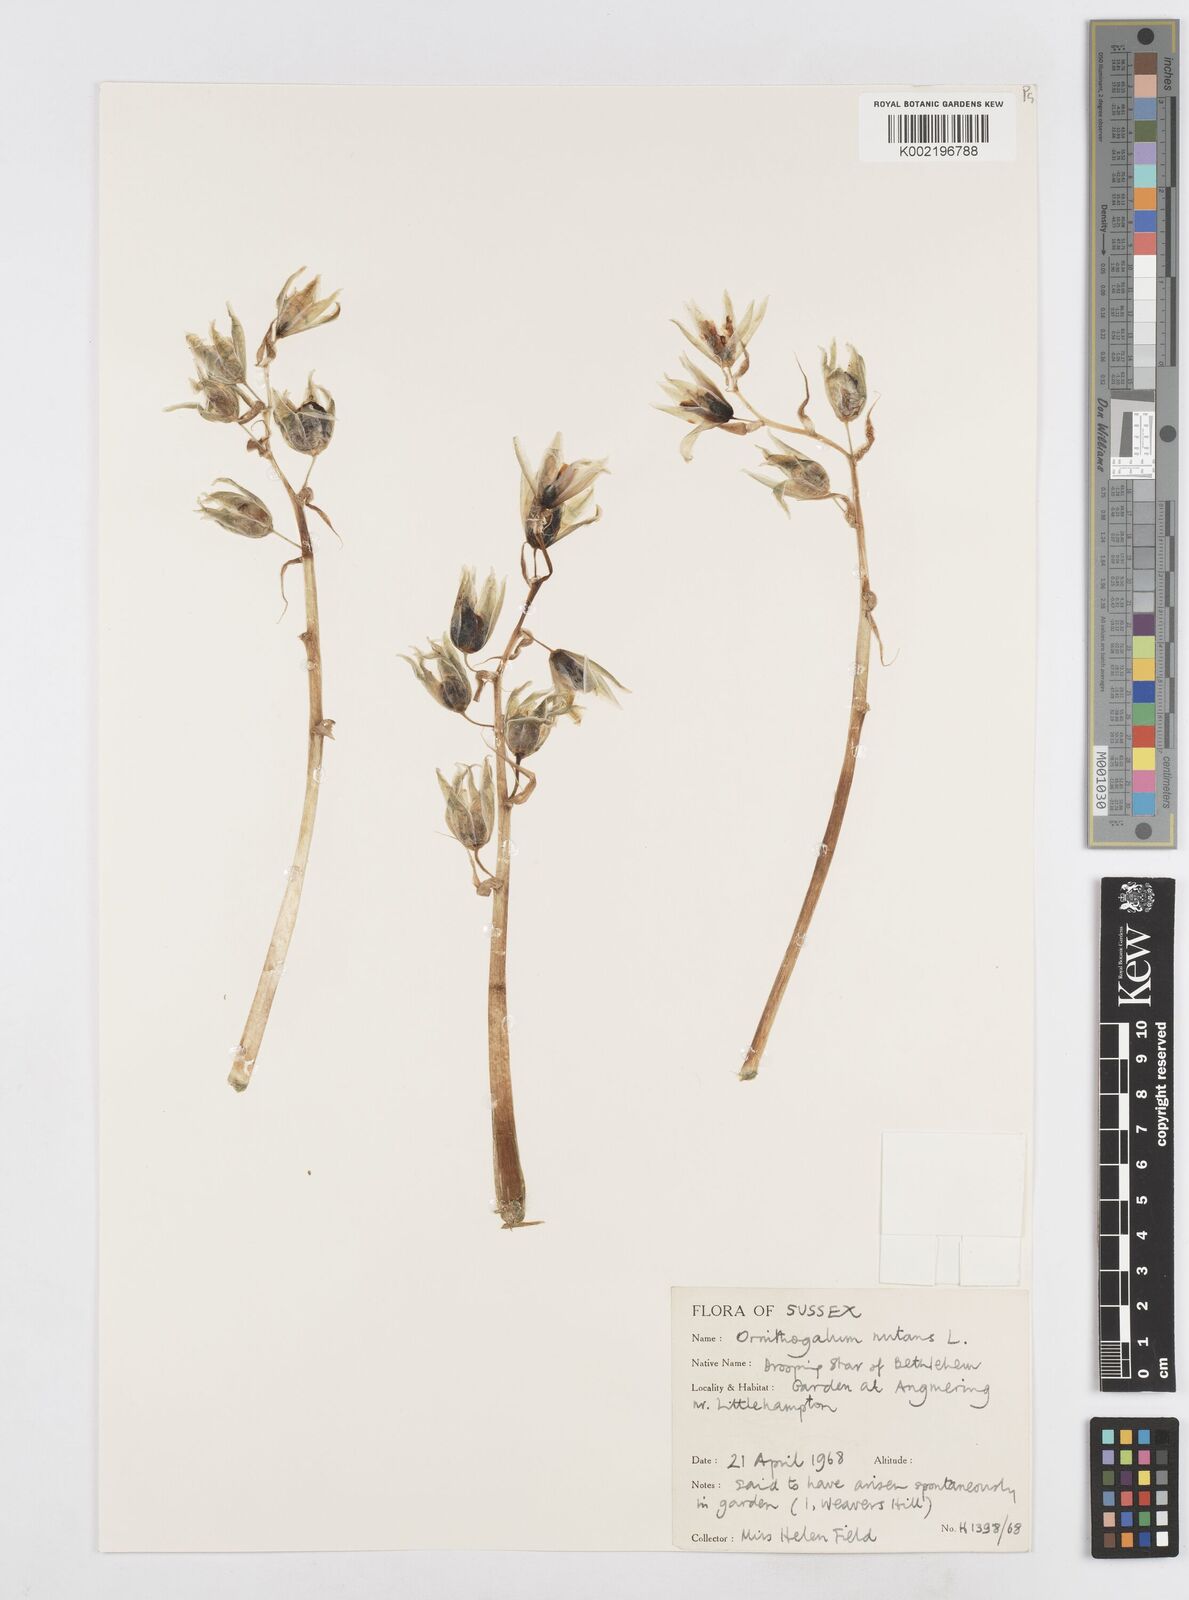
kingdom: Plantae
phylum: Tracheophyta
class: Liliopsida
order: Asparagales
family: Asparagaceae
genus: Ornithogalum
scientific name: Ornithogalum nutans
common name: Drooping star-of-bethlehem
